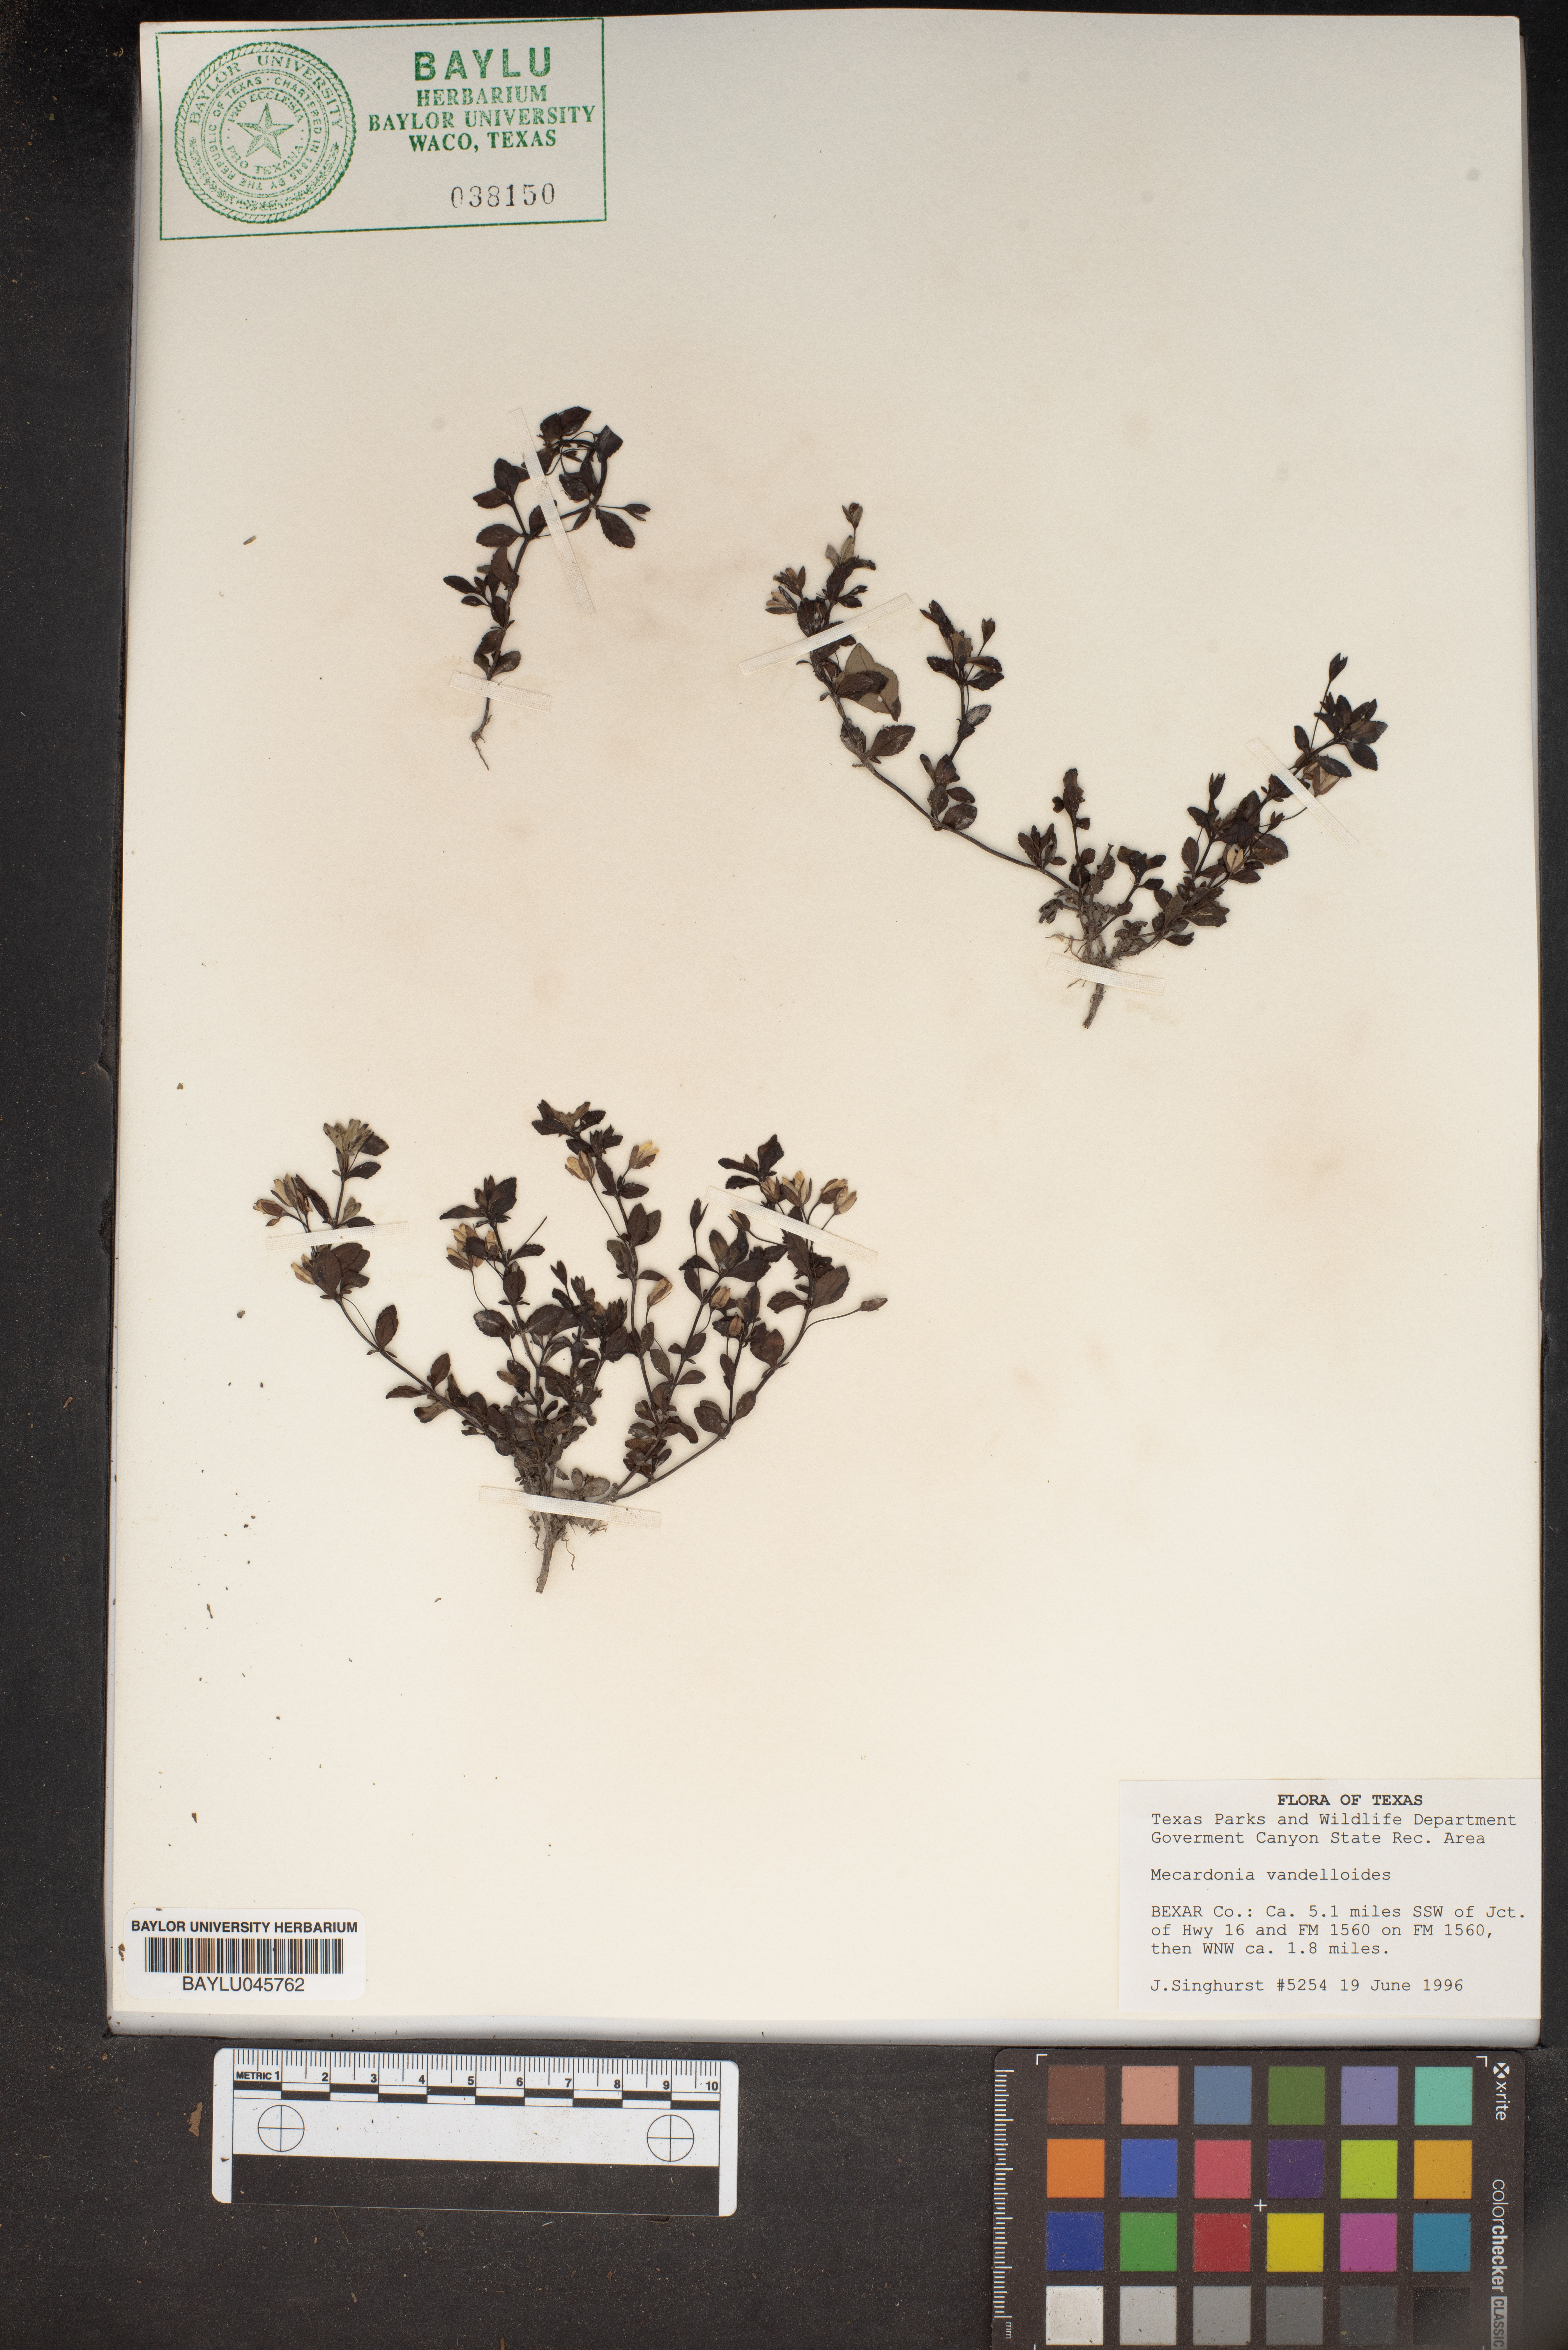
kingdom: Plantae
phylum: Tracheophyta
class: Magnoliopsida
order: Lamiales
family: Plantaginaceae
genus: Mecardonia
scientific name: Mecardonia procumbens
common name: Baby jump-up
